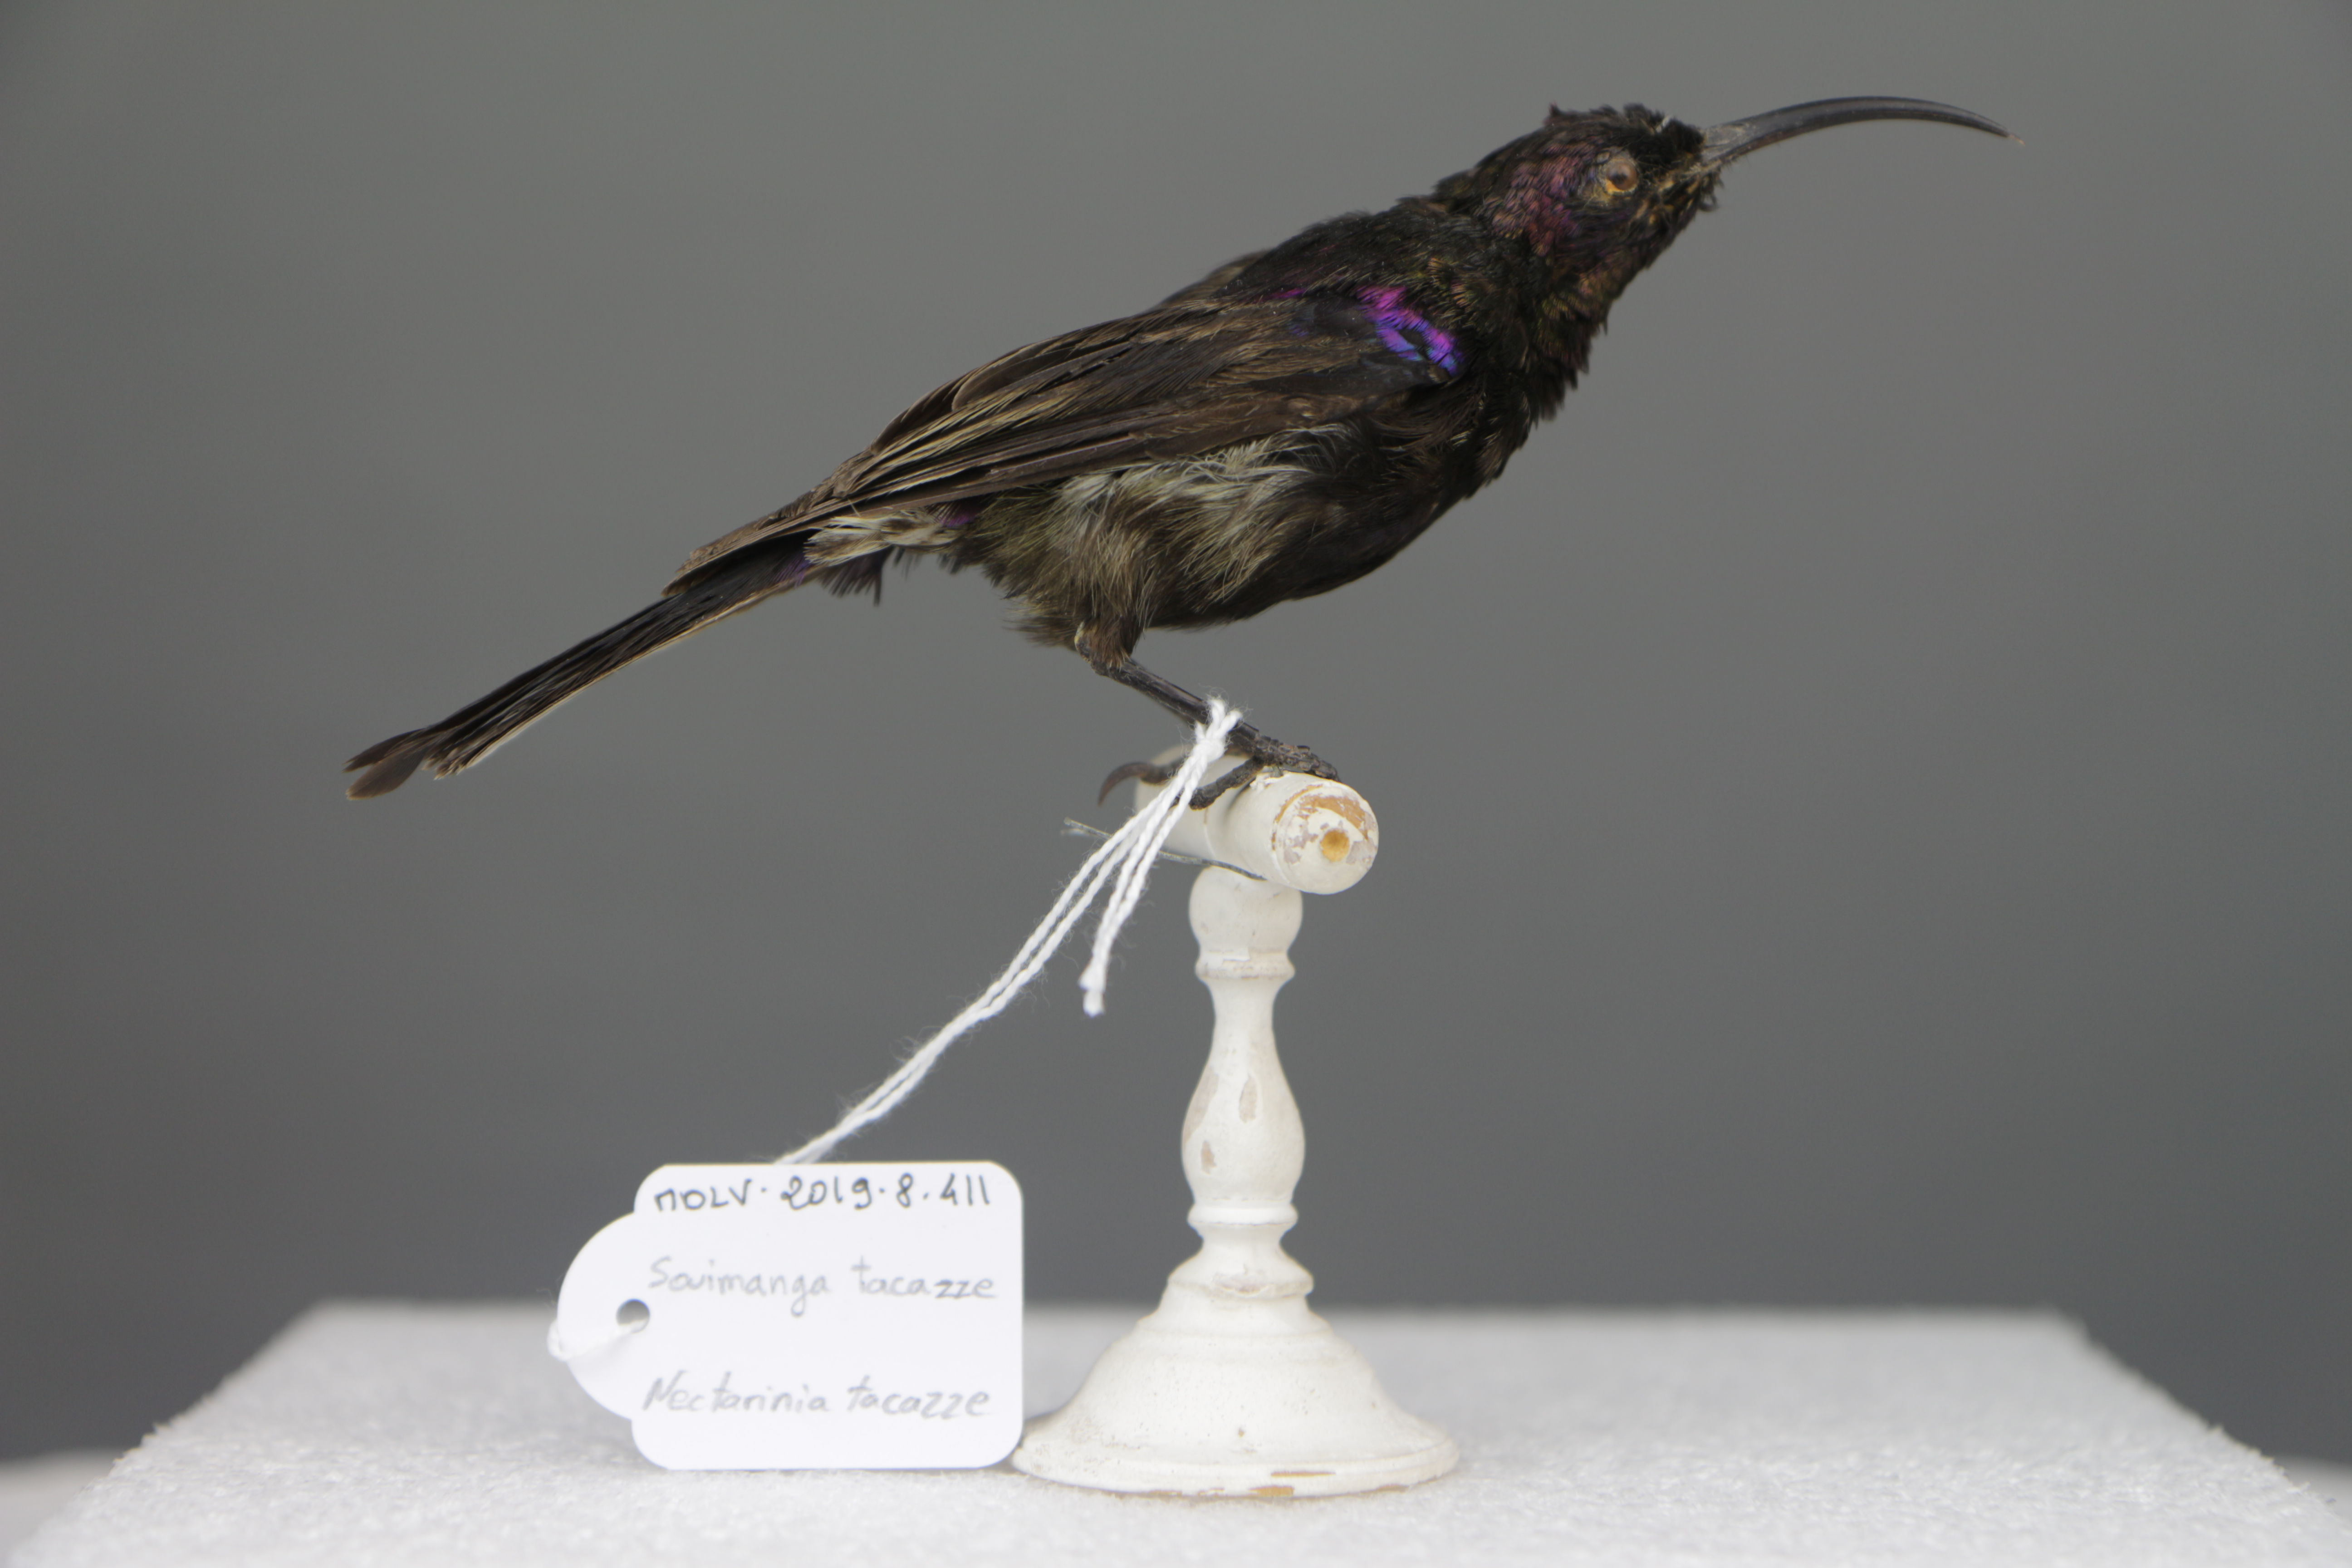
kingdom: Animalia
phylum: Chordata
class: Aves
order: Passeriformes
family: Nectariniidae
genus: Nectarinia
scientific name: Nectarinia tacazze
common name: Tacazze sunbird
